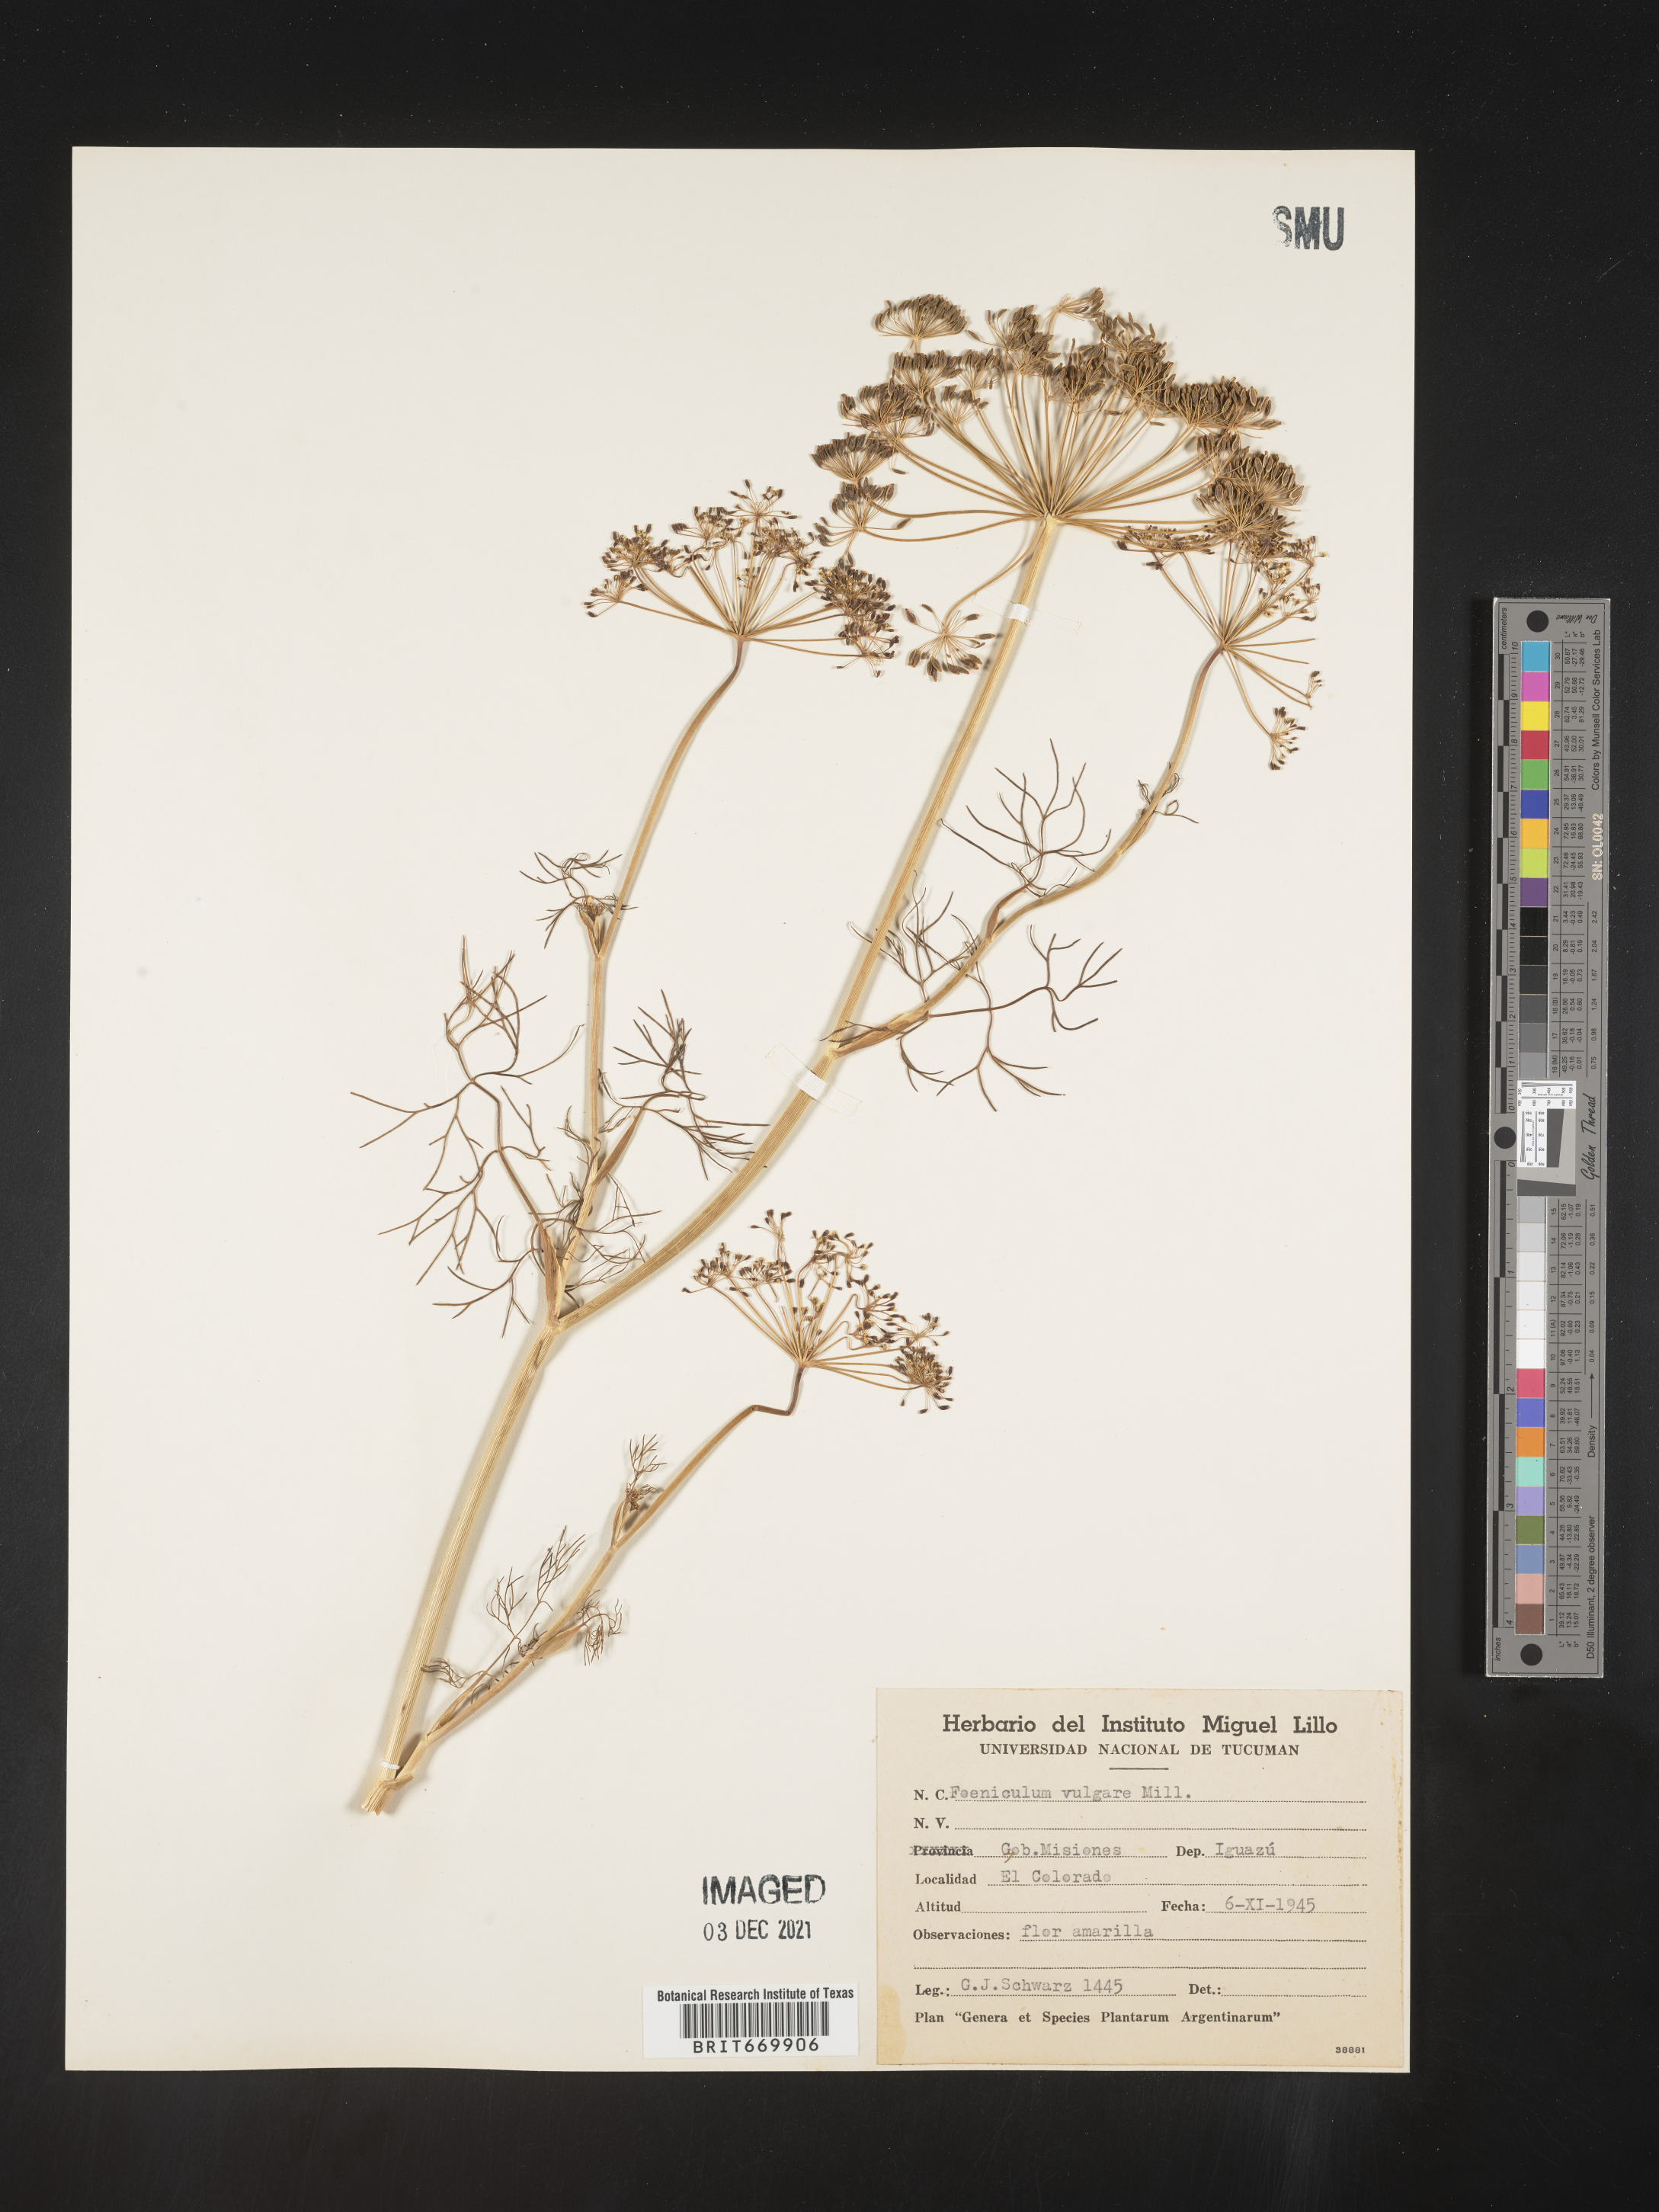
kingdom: Plantae
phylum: Tracheophyta
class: Magnoliopsida
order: Apiales
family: Apiaceae
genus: Foeniculum
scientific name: Foeniculum
